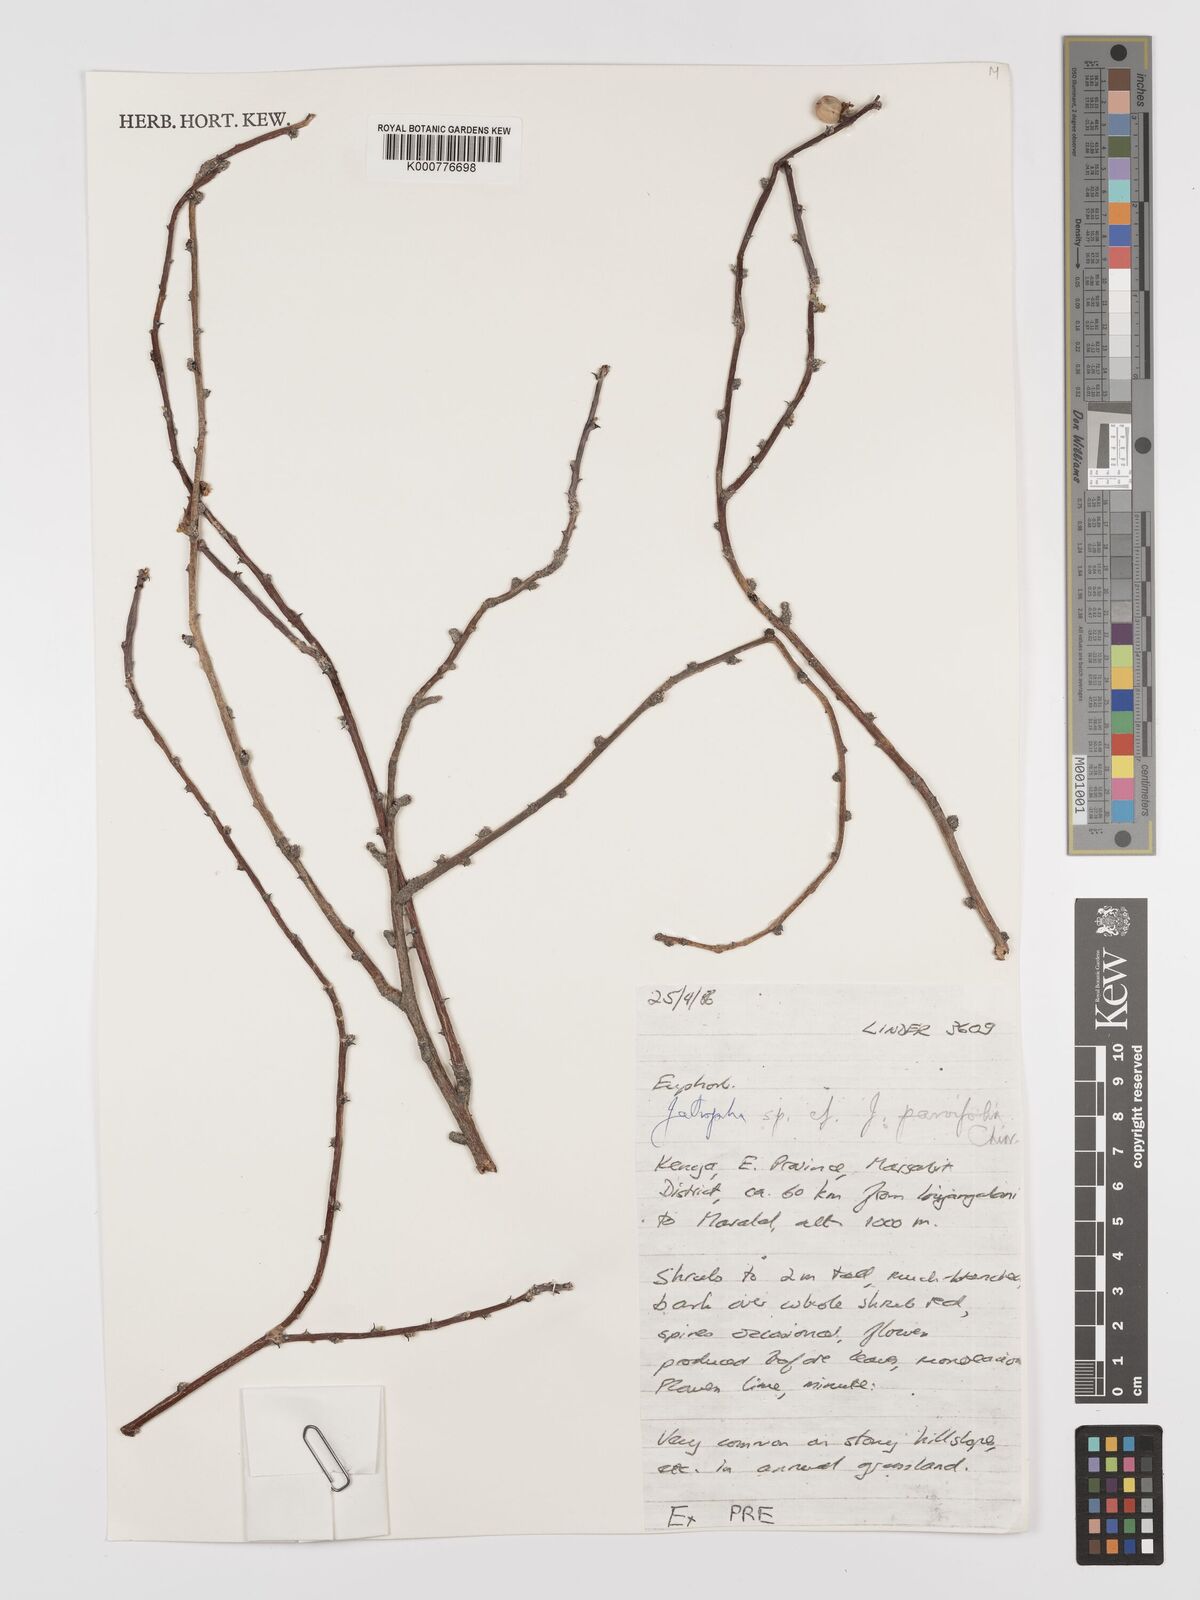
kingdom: Plantae
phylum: Tracheophyta
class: Magnoliopsida
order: Malpighiales
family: Euphorbiaceae
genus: Jatropha
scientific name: Jatropha rivae
